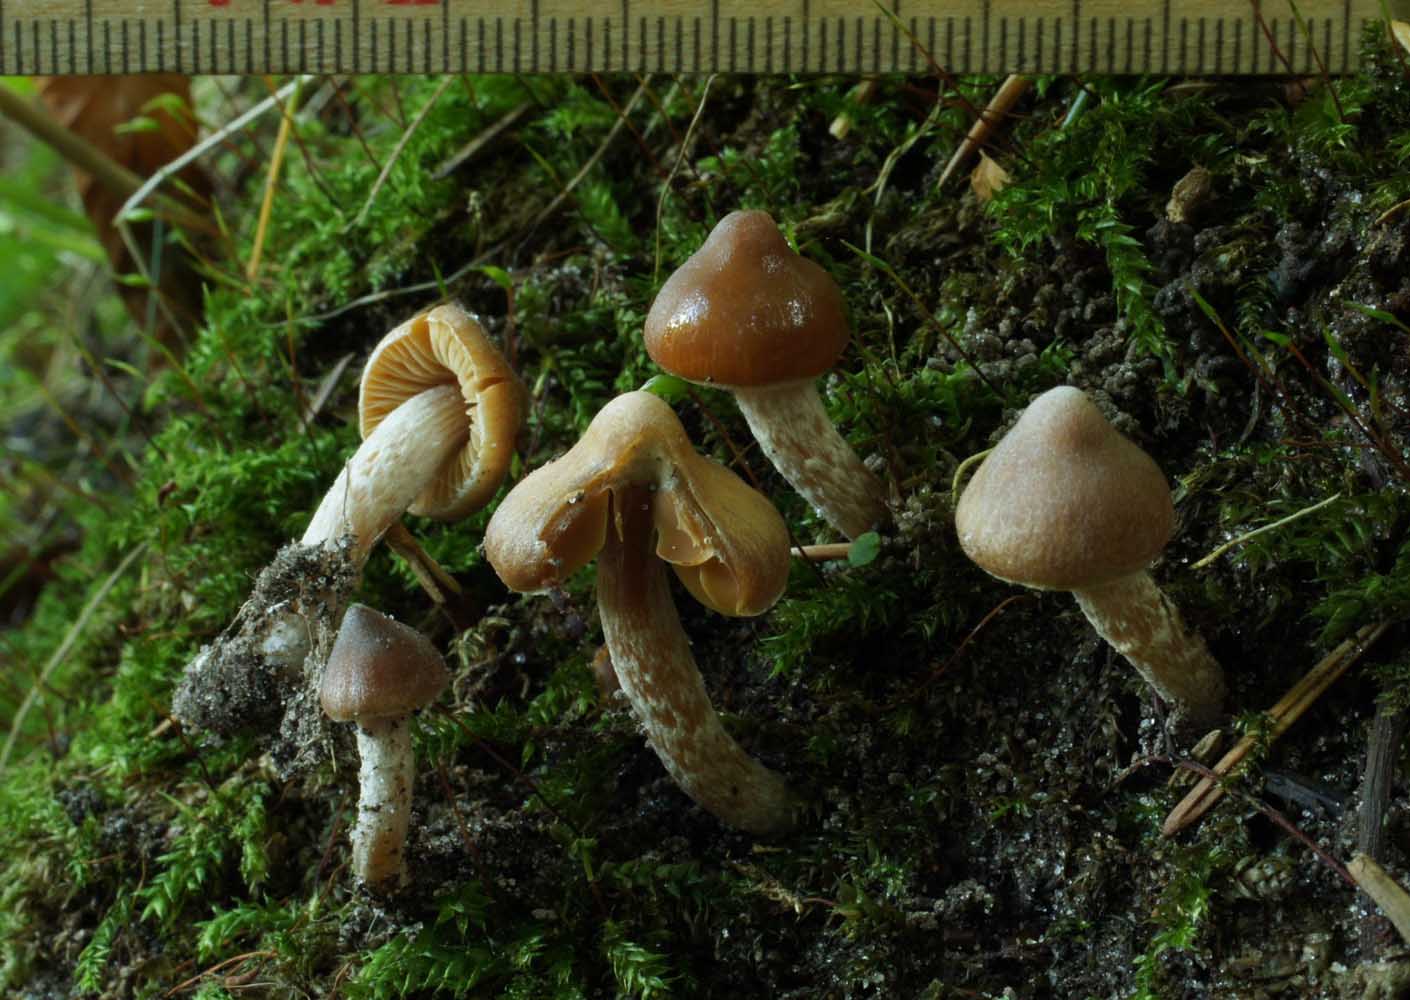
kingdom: Fungi
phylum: Basidiomycota
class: Agaricomycetes
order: Agaricales
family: Cortinariaceae
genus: Cortinarius
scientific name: Cortinarius obtusorum
